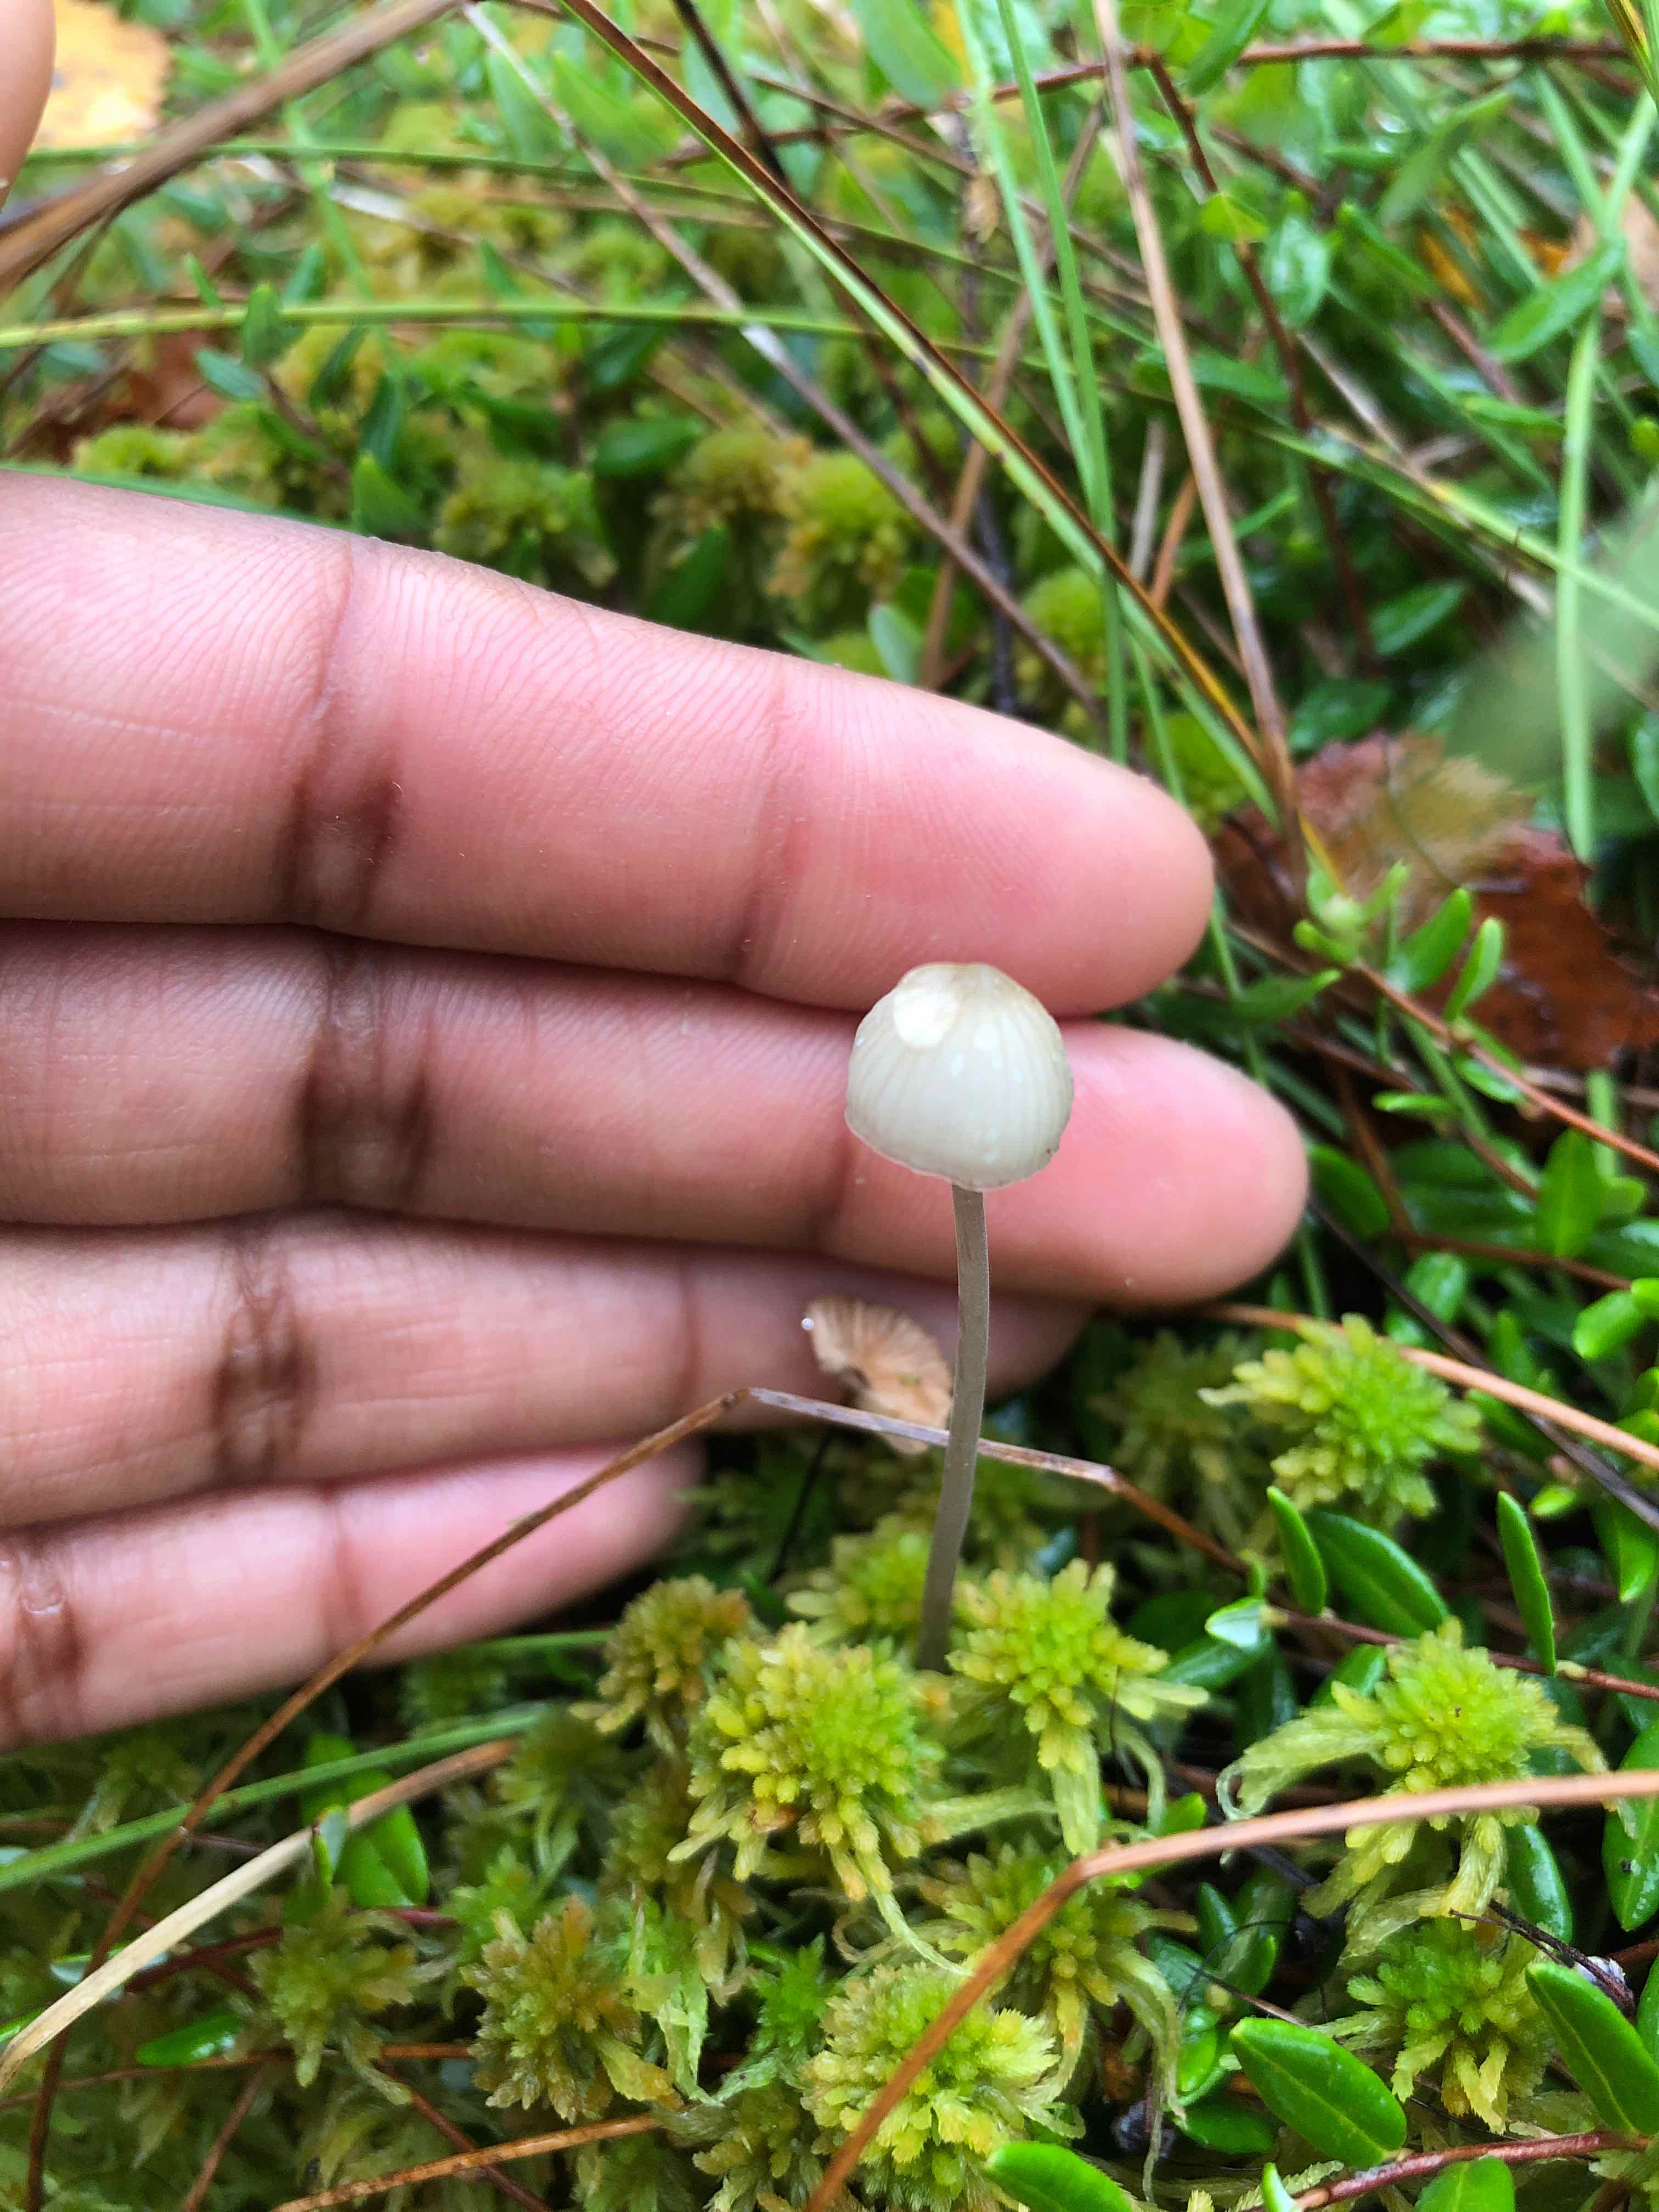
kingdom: Fungi
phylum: Basidiomycota
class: Agaricomycetes
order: Agaricales
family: Mycenaceae
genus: Mycena
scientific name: Mycena
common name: huesvamp
